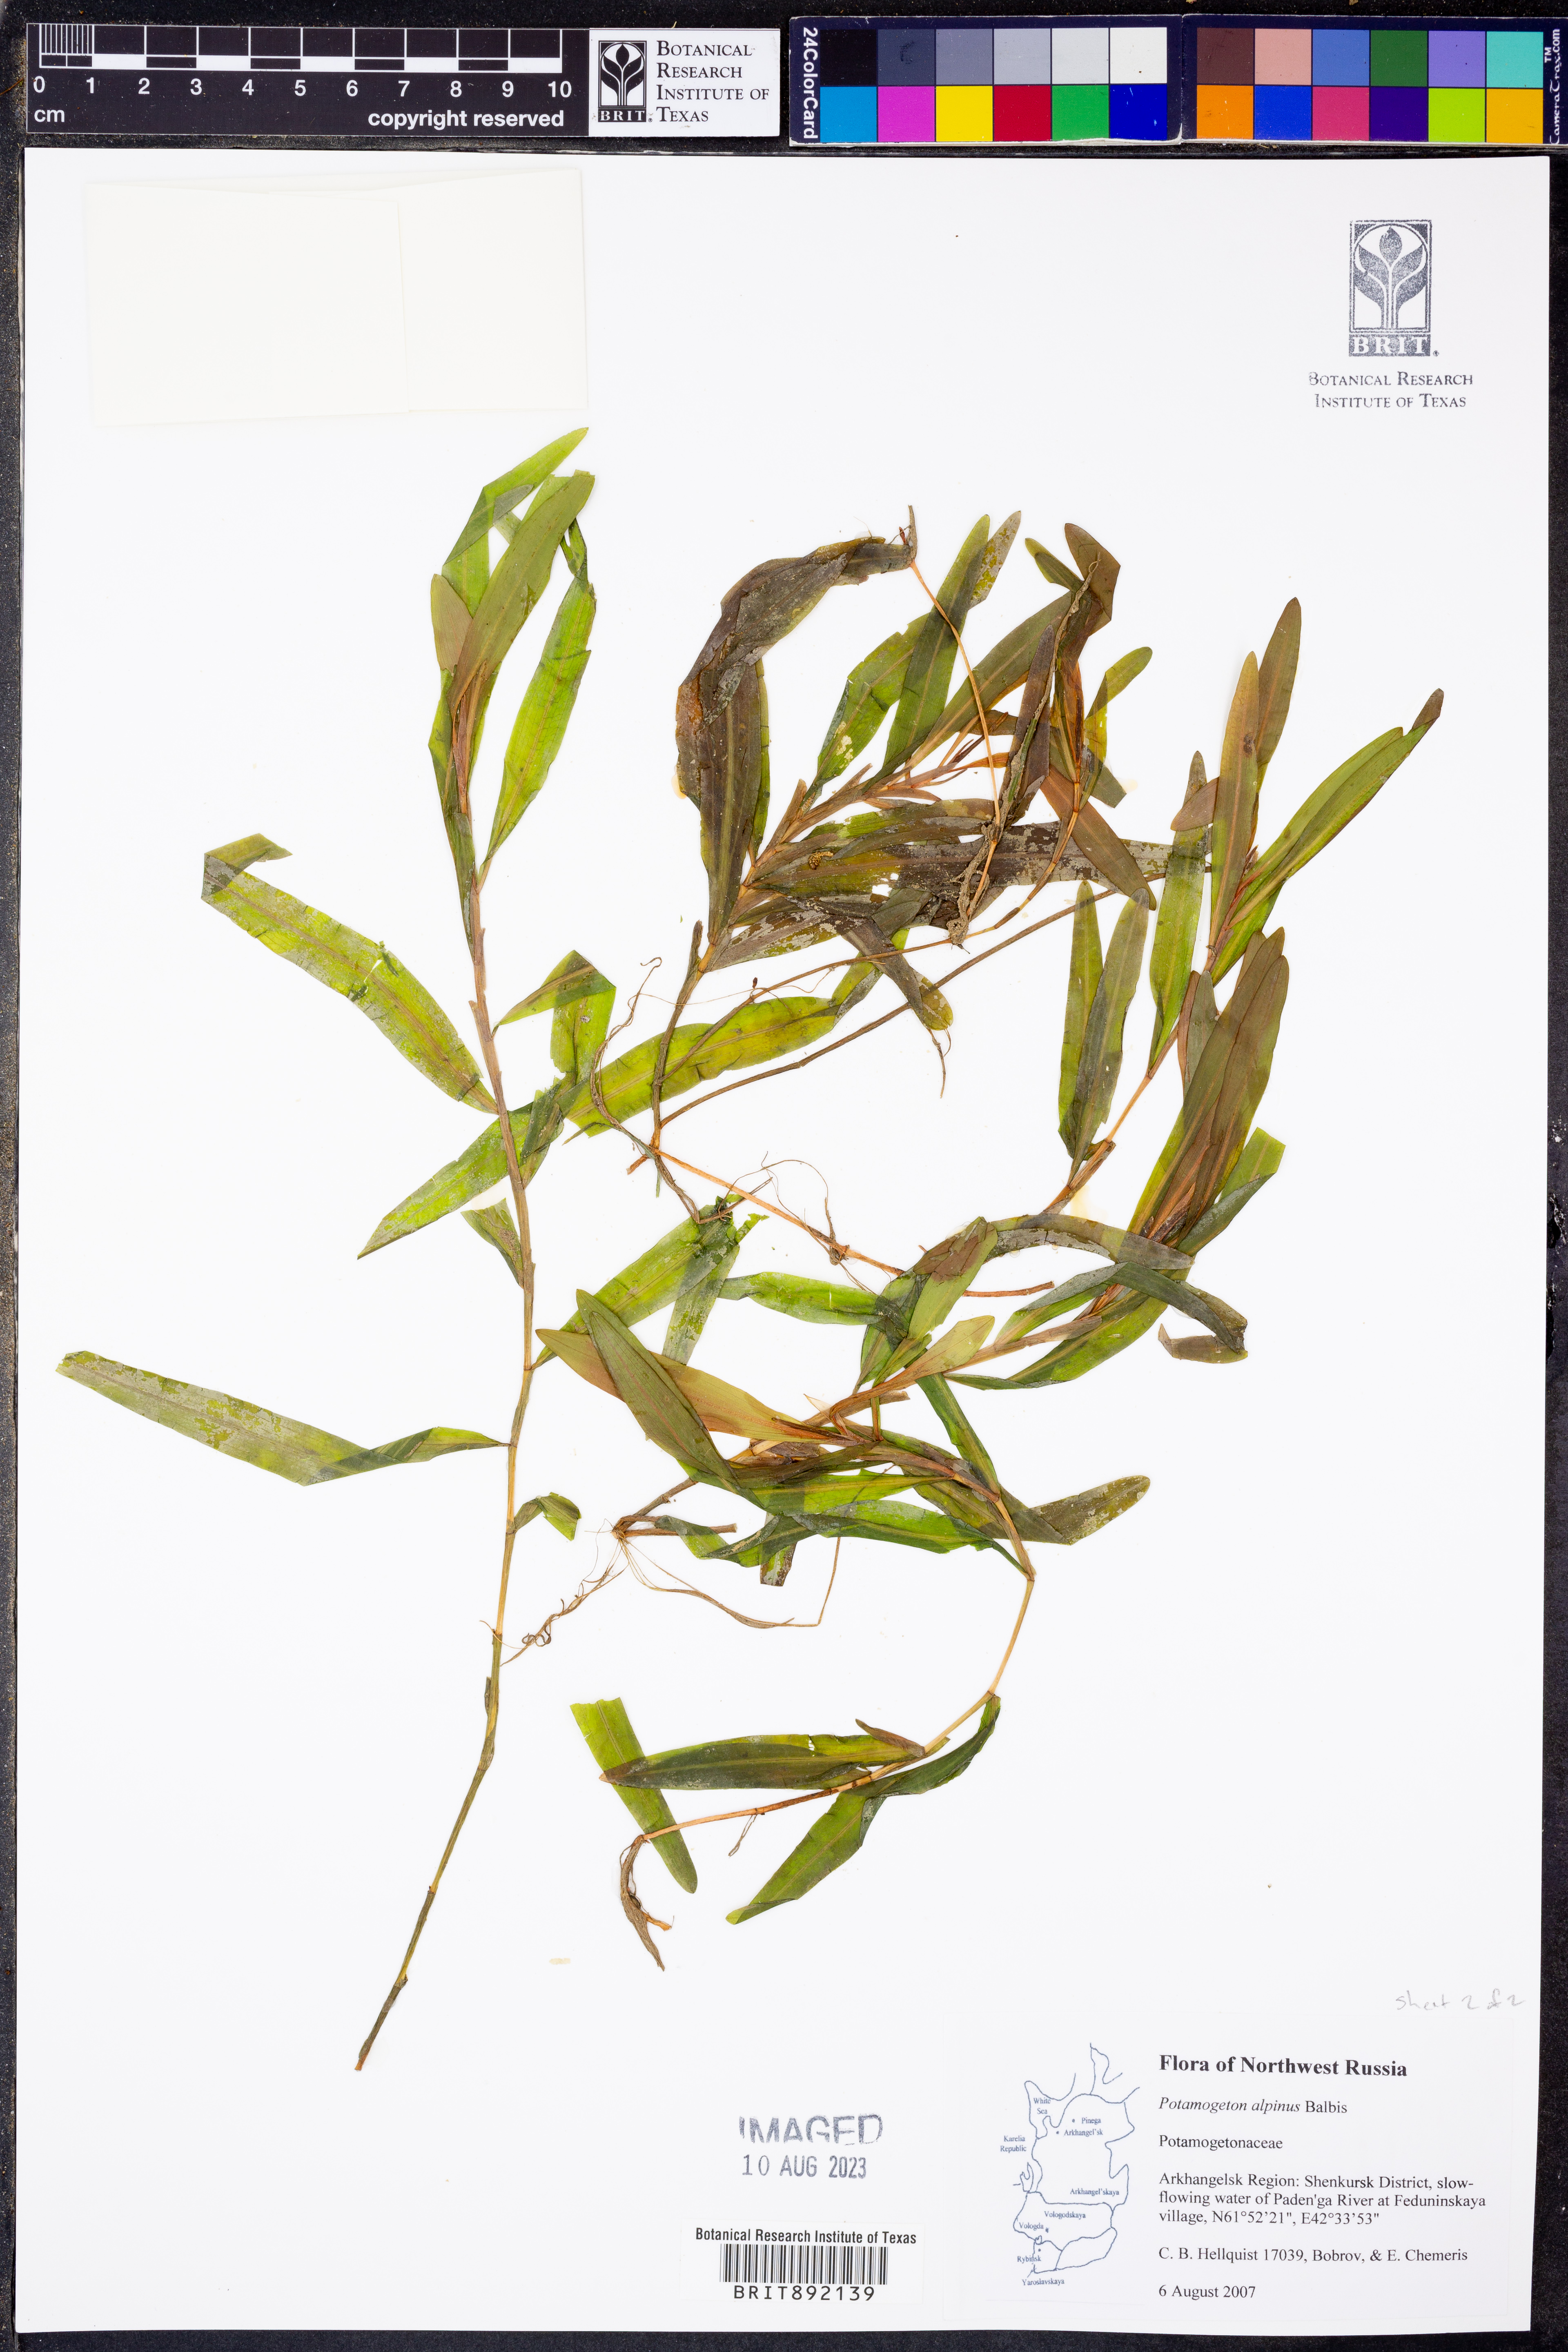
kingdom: Plantae
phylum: Tracheophyta
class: Liliopsida
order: Alismatales
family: Potamogetonaceae
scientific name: Potamogetonaceae
